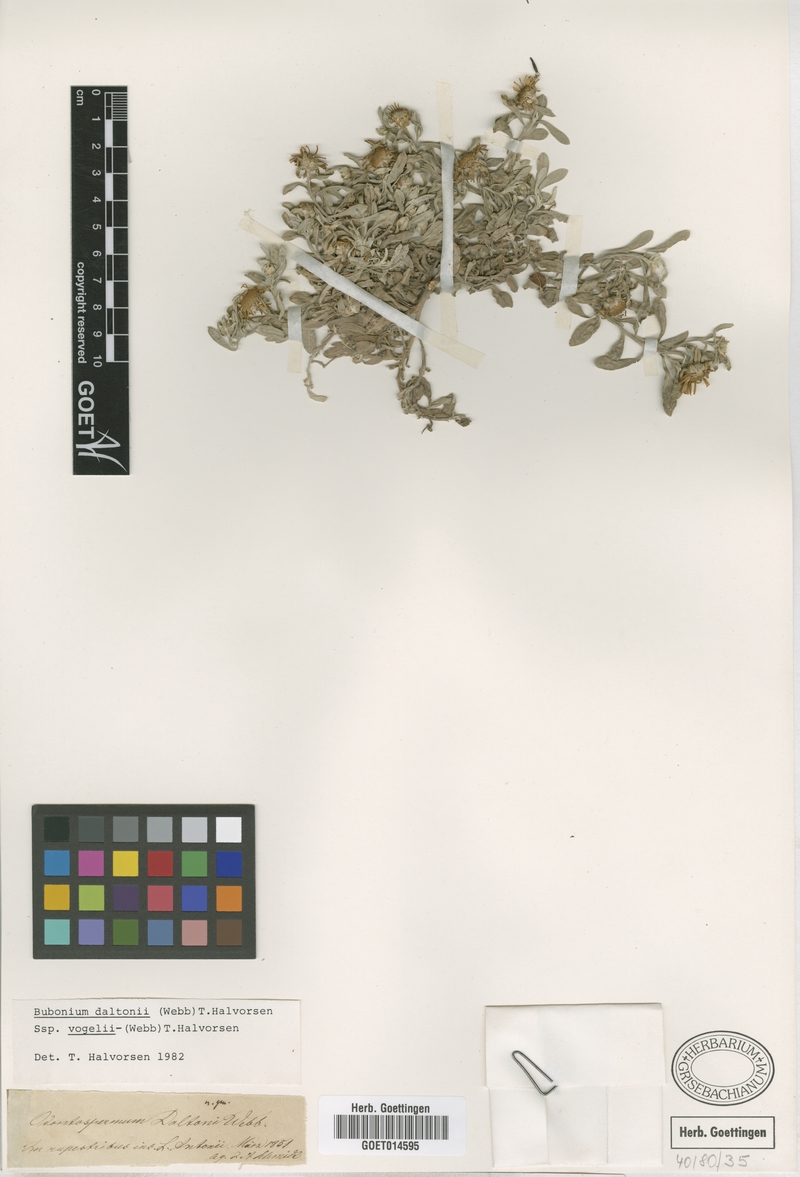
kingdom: Plantae
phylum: Tracheophyta
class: Magnoliopsida
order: Asterales
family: Asteraceae
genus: Asteriscus
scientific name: Asteriscus daltonii
